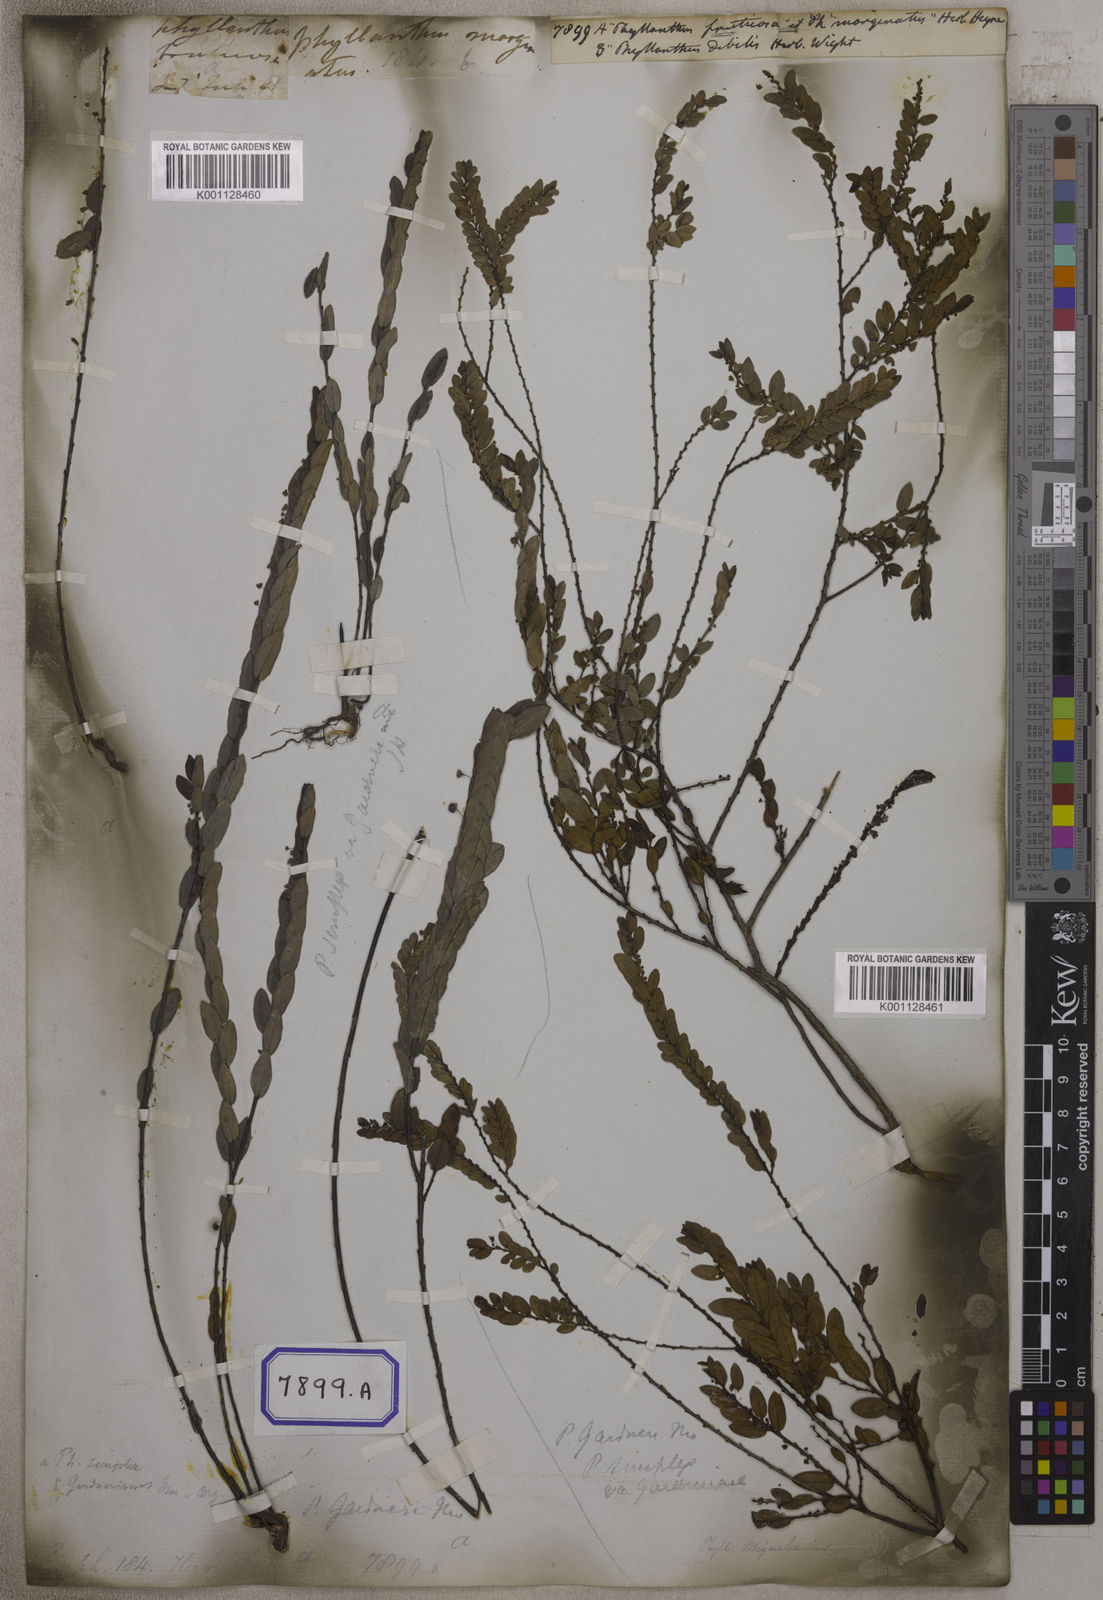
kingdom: Plantae
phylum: Tracheophyta
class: Magnoliopsida
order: Malpighiales
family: Euphorbiaceae
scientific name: Euphorbiaceae
